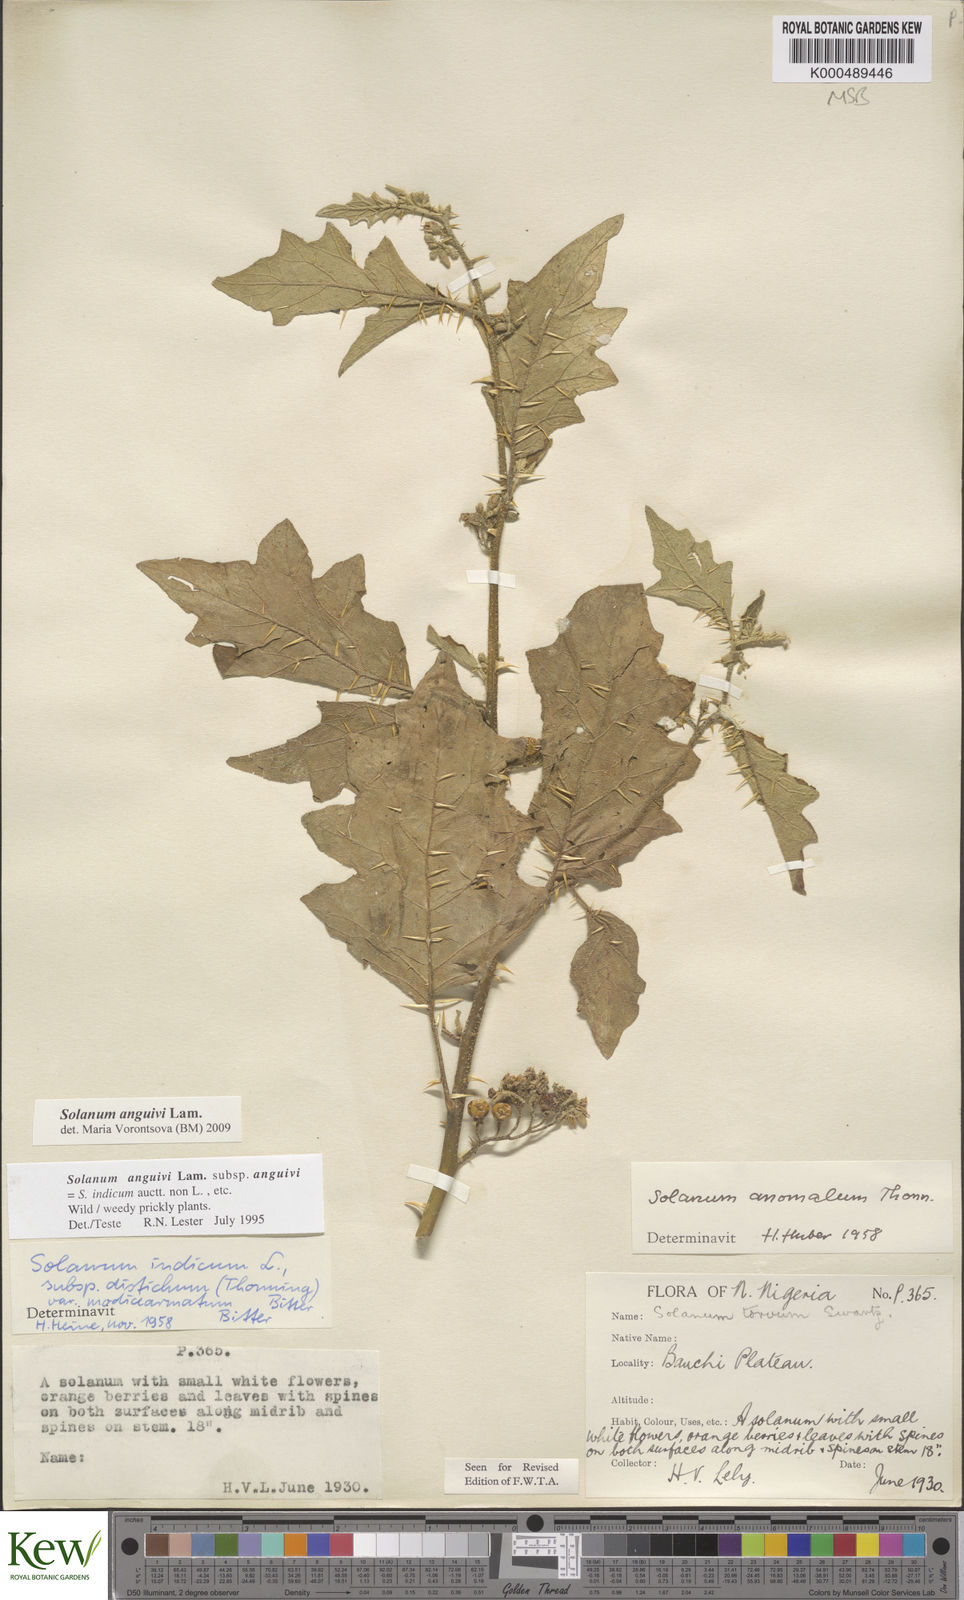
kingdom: Plantae
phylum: Tracheophyta
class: Magnoliopsida
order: Solanales
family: Solanaceae
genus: Solanum
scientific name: Solanum anguivi
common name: Forest bitterberry
